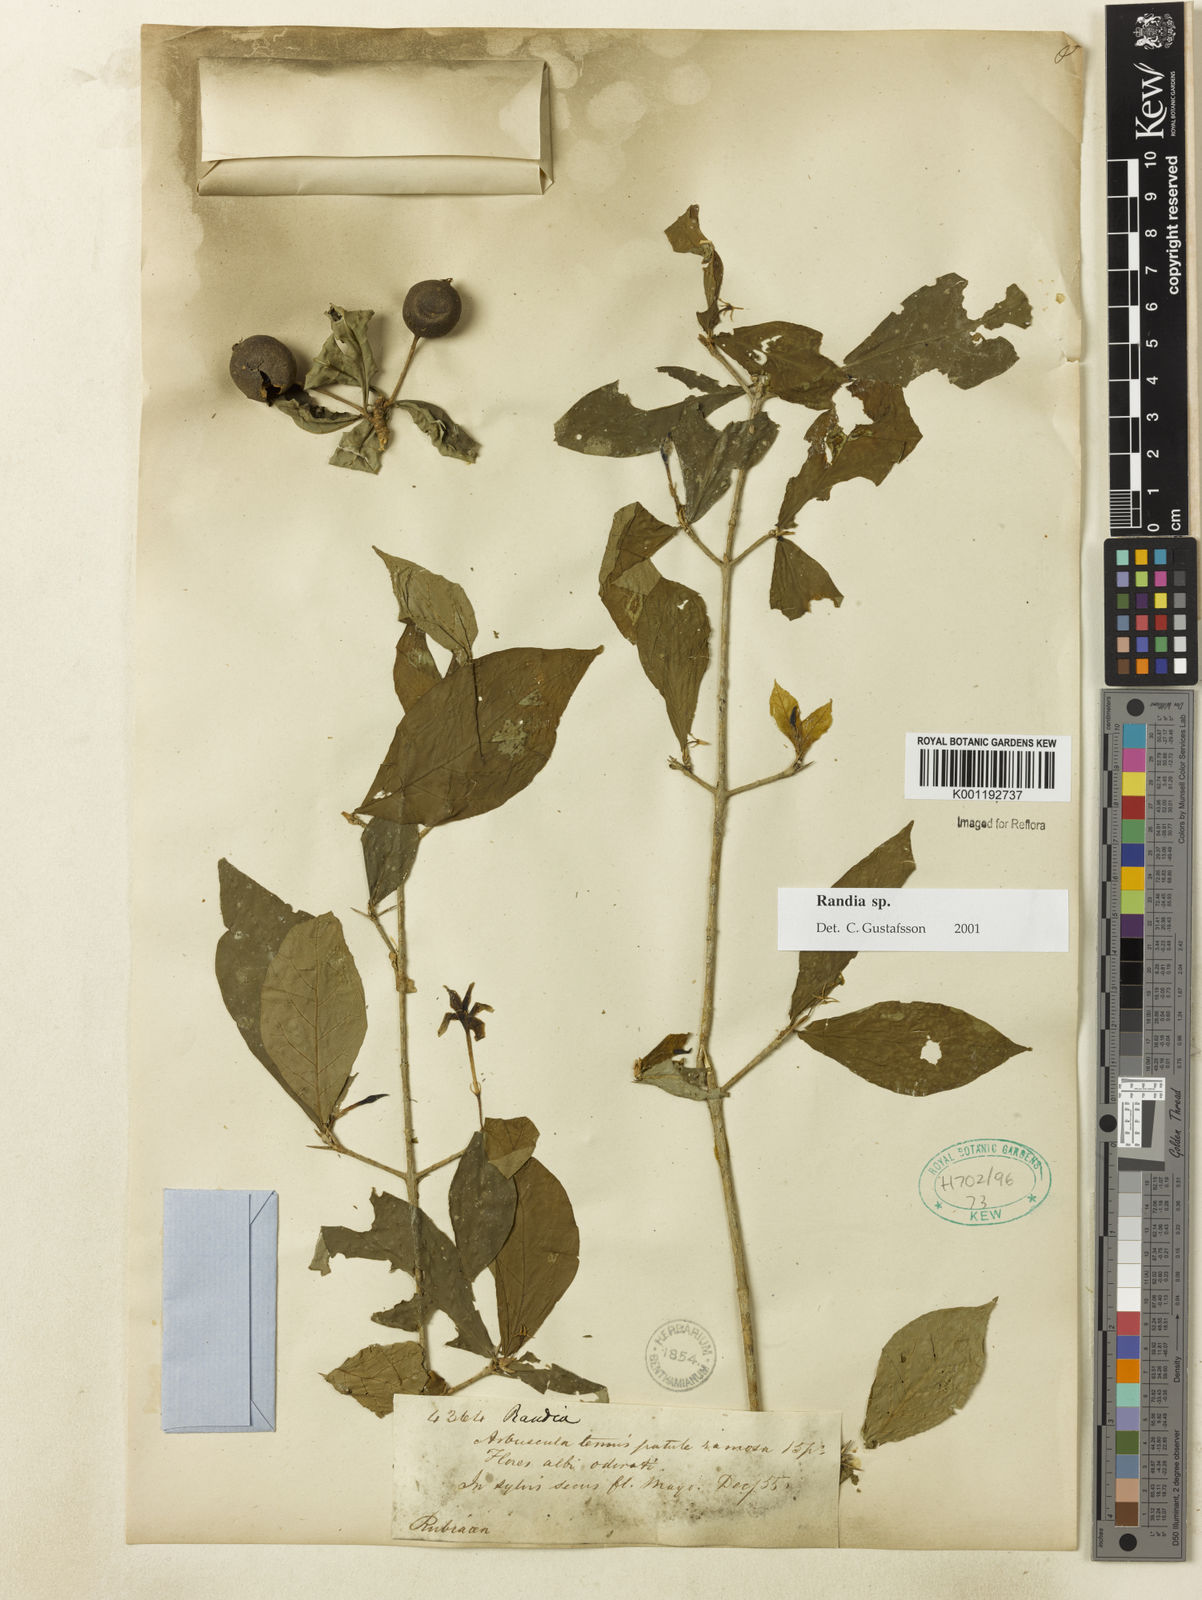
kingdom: Plantae
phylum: Tracheophyta
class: Magnoliopsida
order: Gentianales
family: Rubiaceae
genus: Randia
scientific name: Randia
